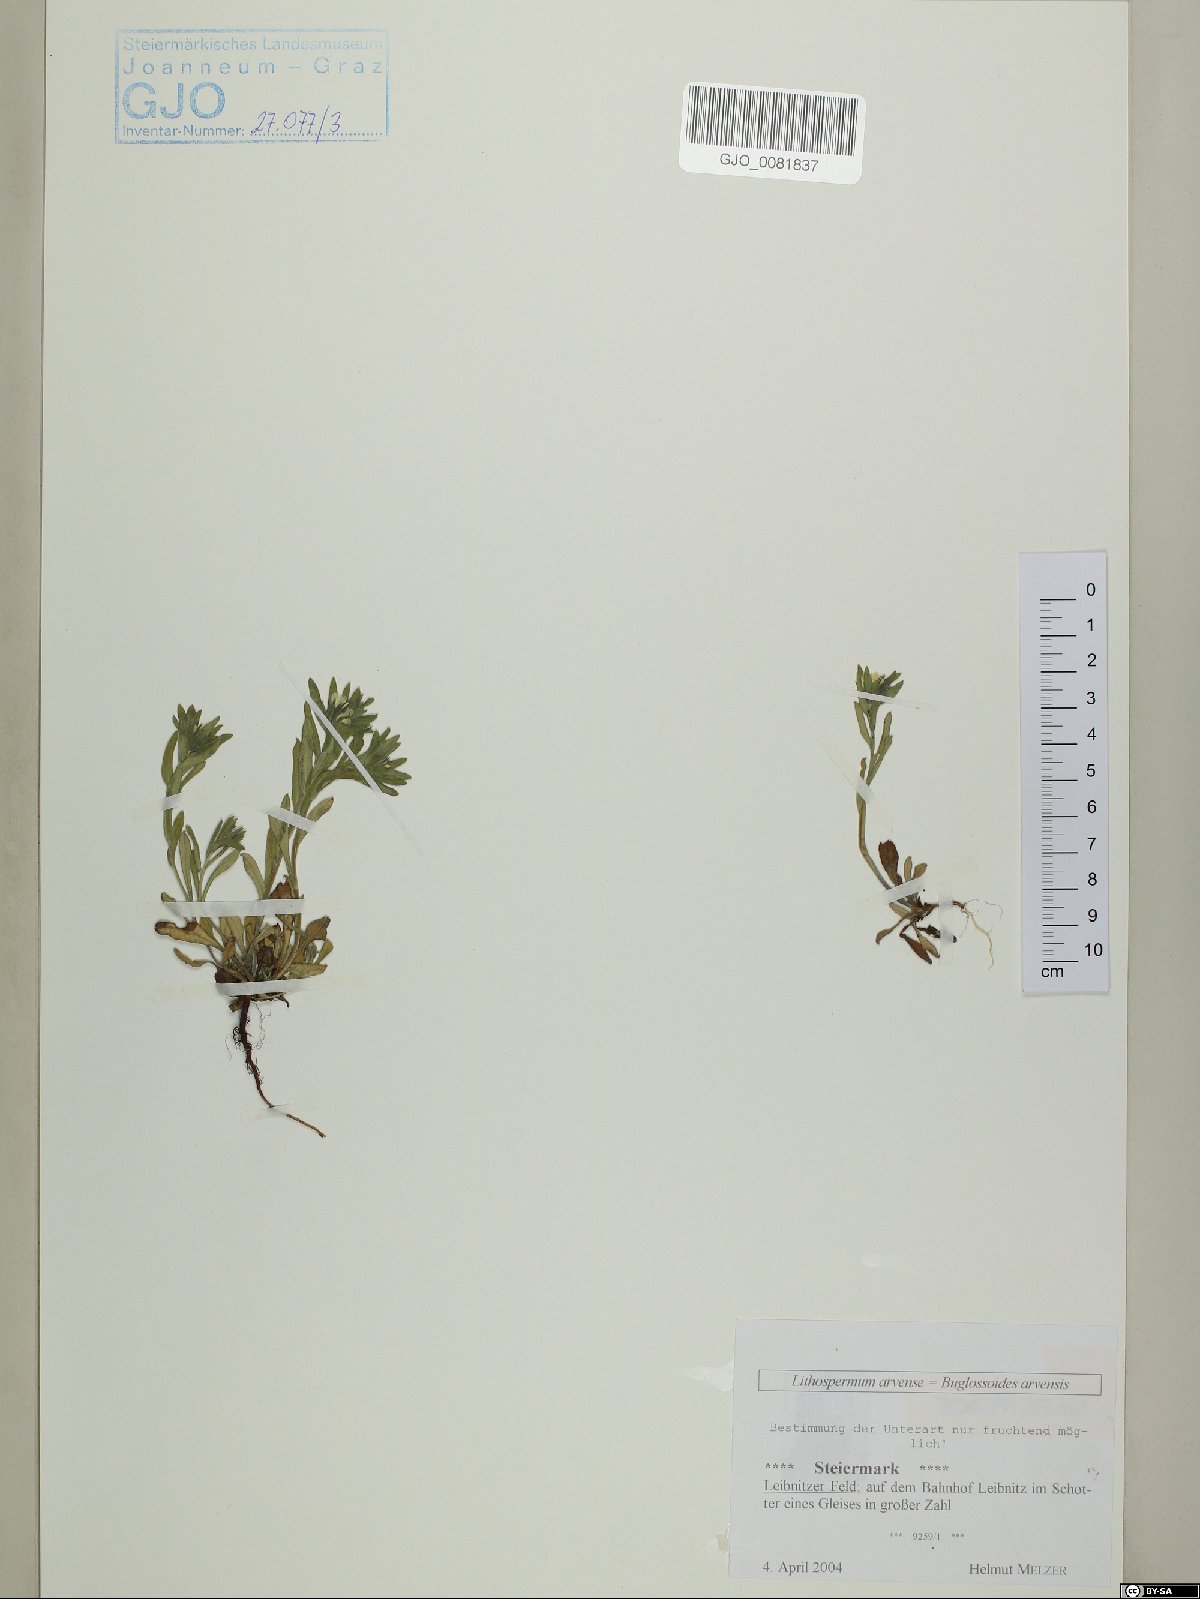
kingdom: Plantae
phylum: Tracheophyta
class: Magnoliopsida
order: Boraginales
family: Boraginaceae
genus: Buglossoides
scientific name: Buglossoides arvensis
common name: Corn gromwell
